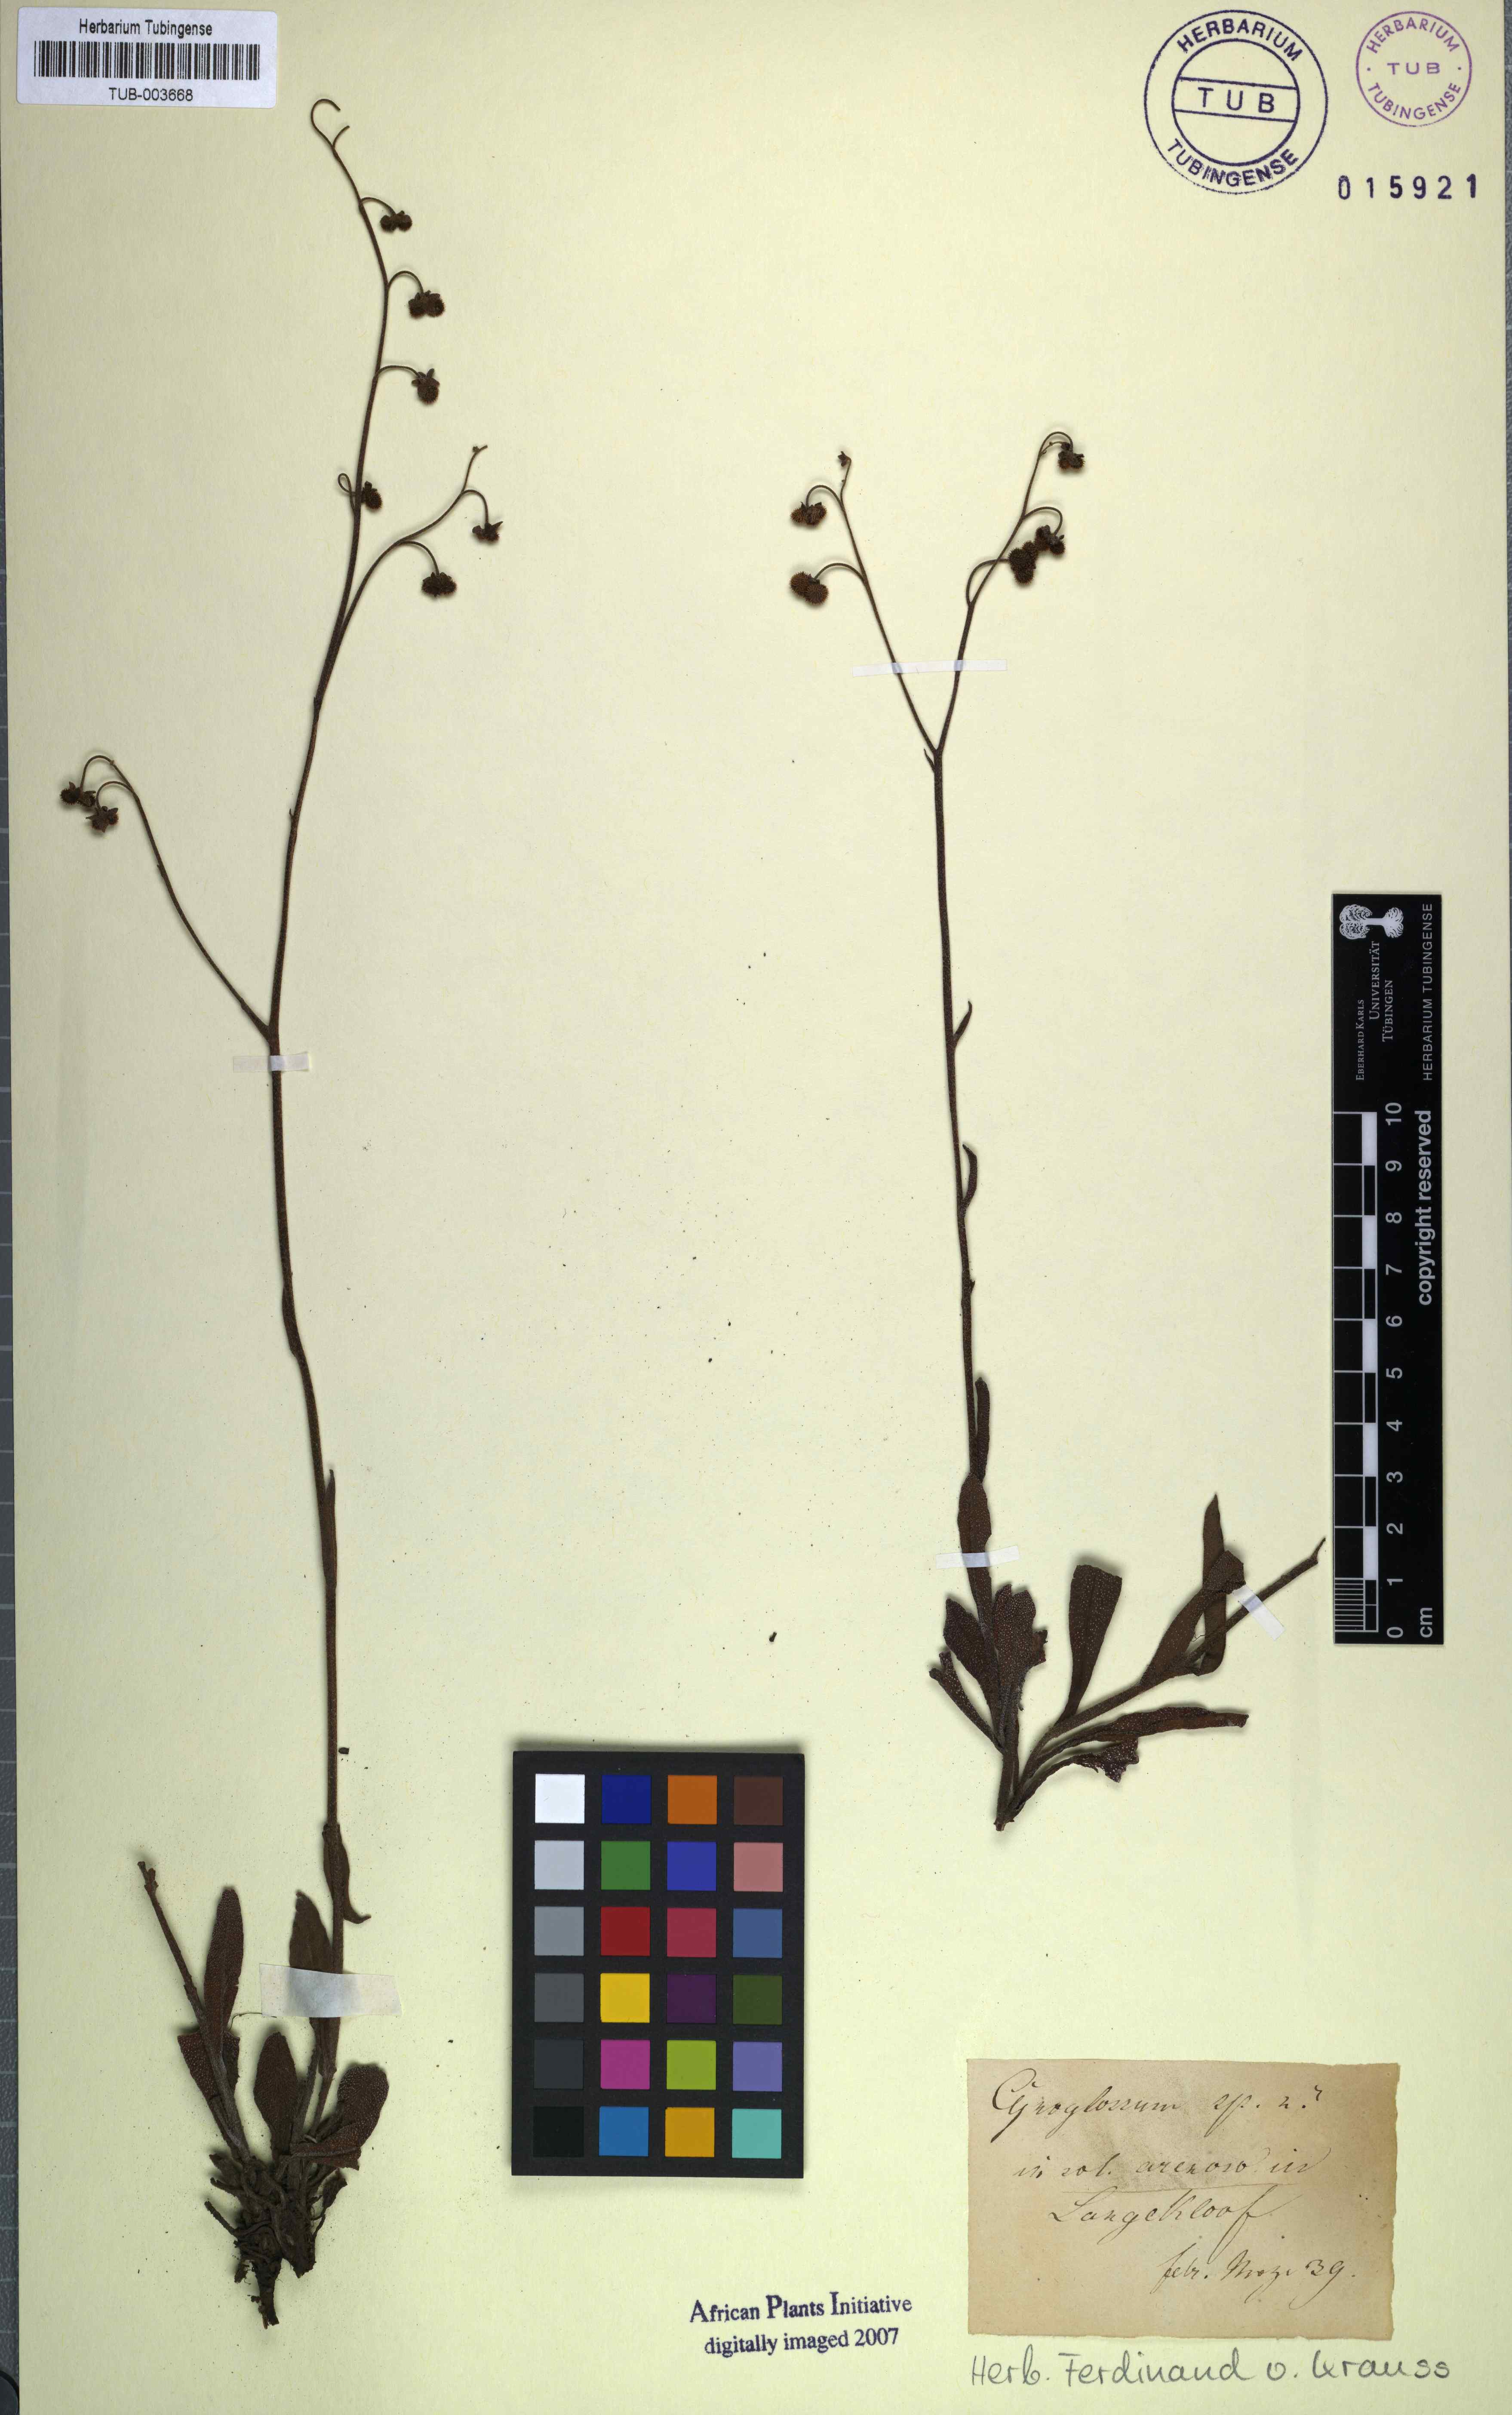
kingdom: Plantae
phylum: Tracheophyta
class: Magnoliopsida
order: Boraginales
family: Boraginaceae
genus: Cynoglossum
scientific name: Cynoglossum
